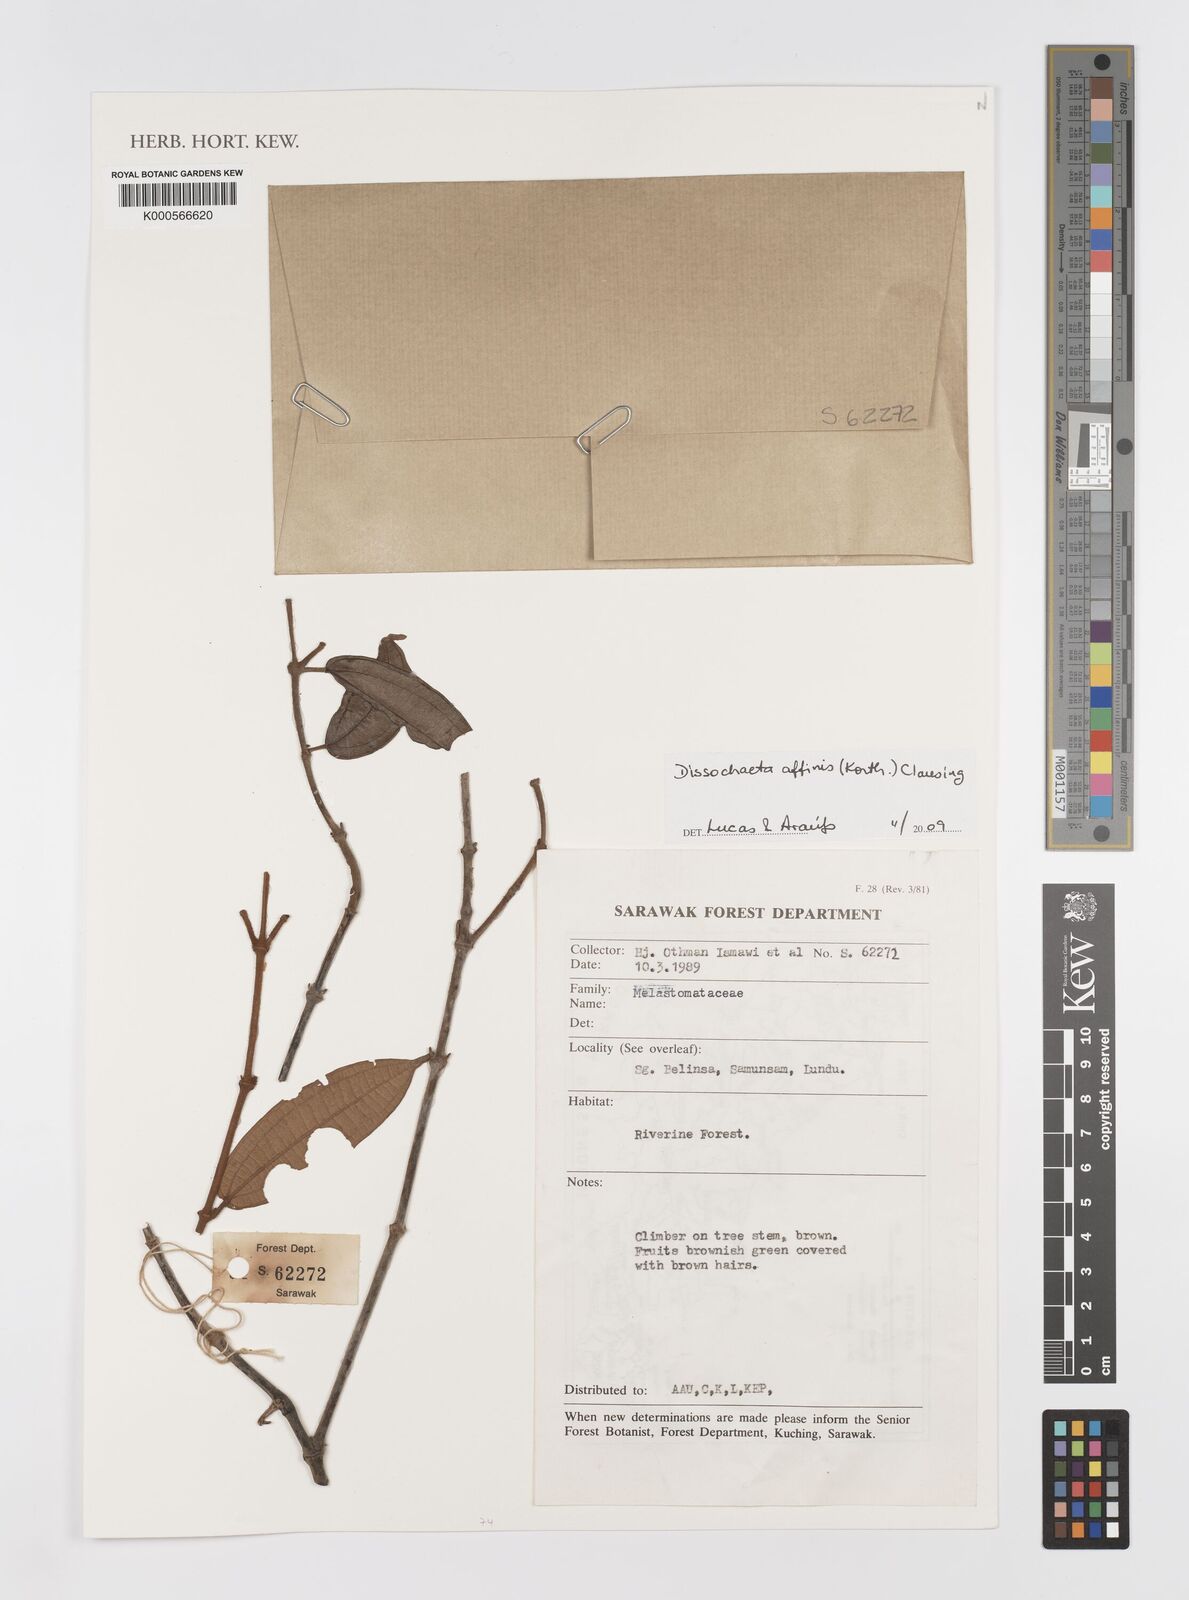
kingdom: Plantae
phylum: Tracheophyta
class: Magnoliopsida
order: Myrtales
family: Melastomataceae
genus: Macrolenes
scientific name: Macrolenes nemorosa
